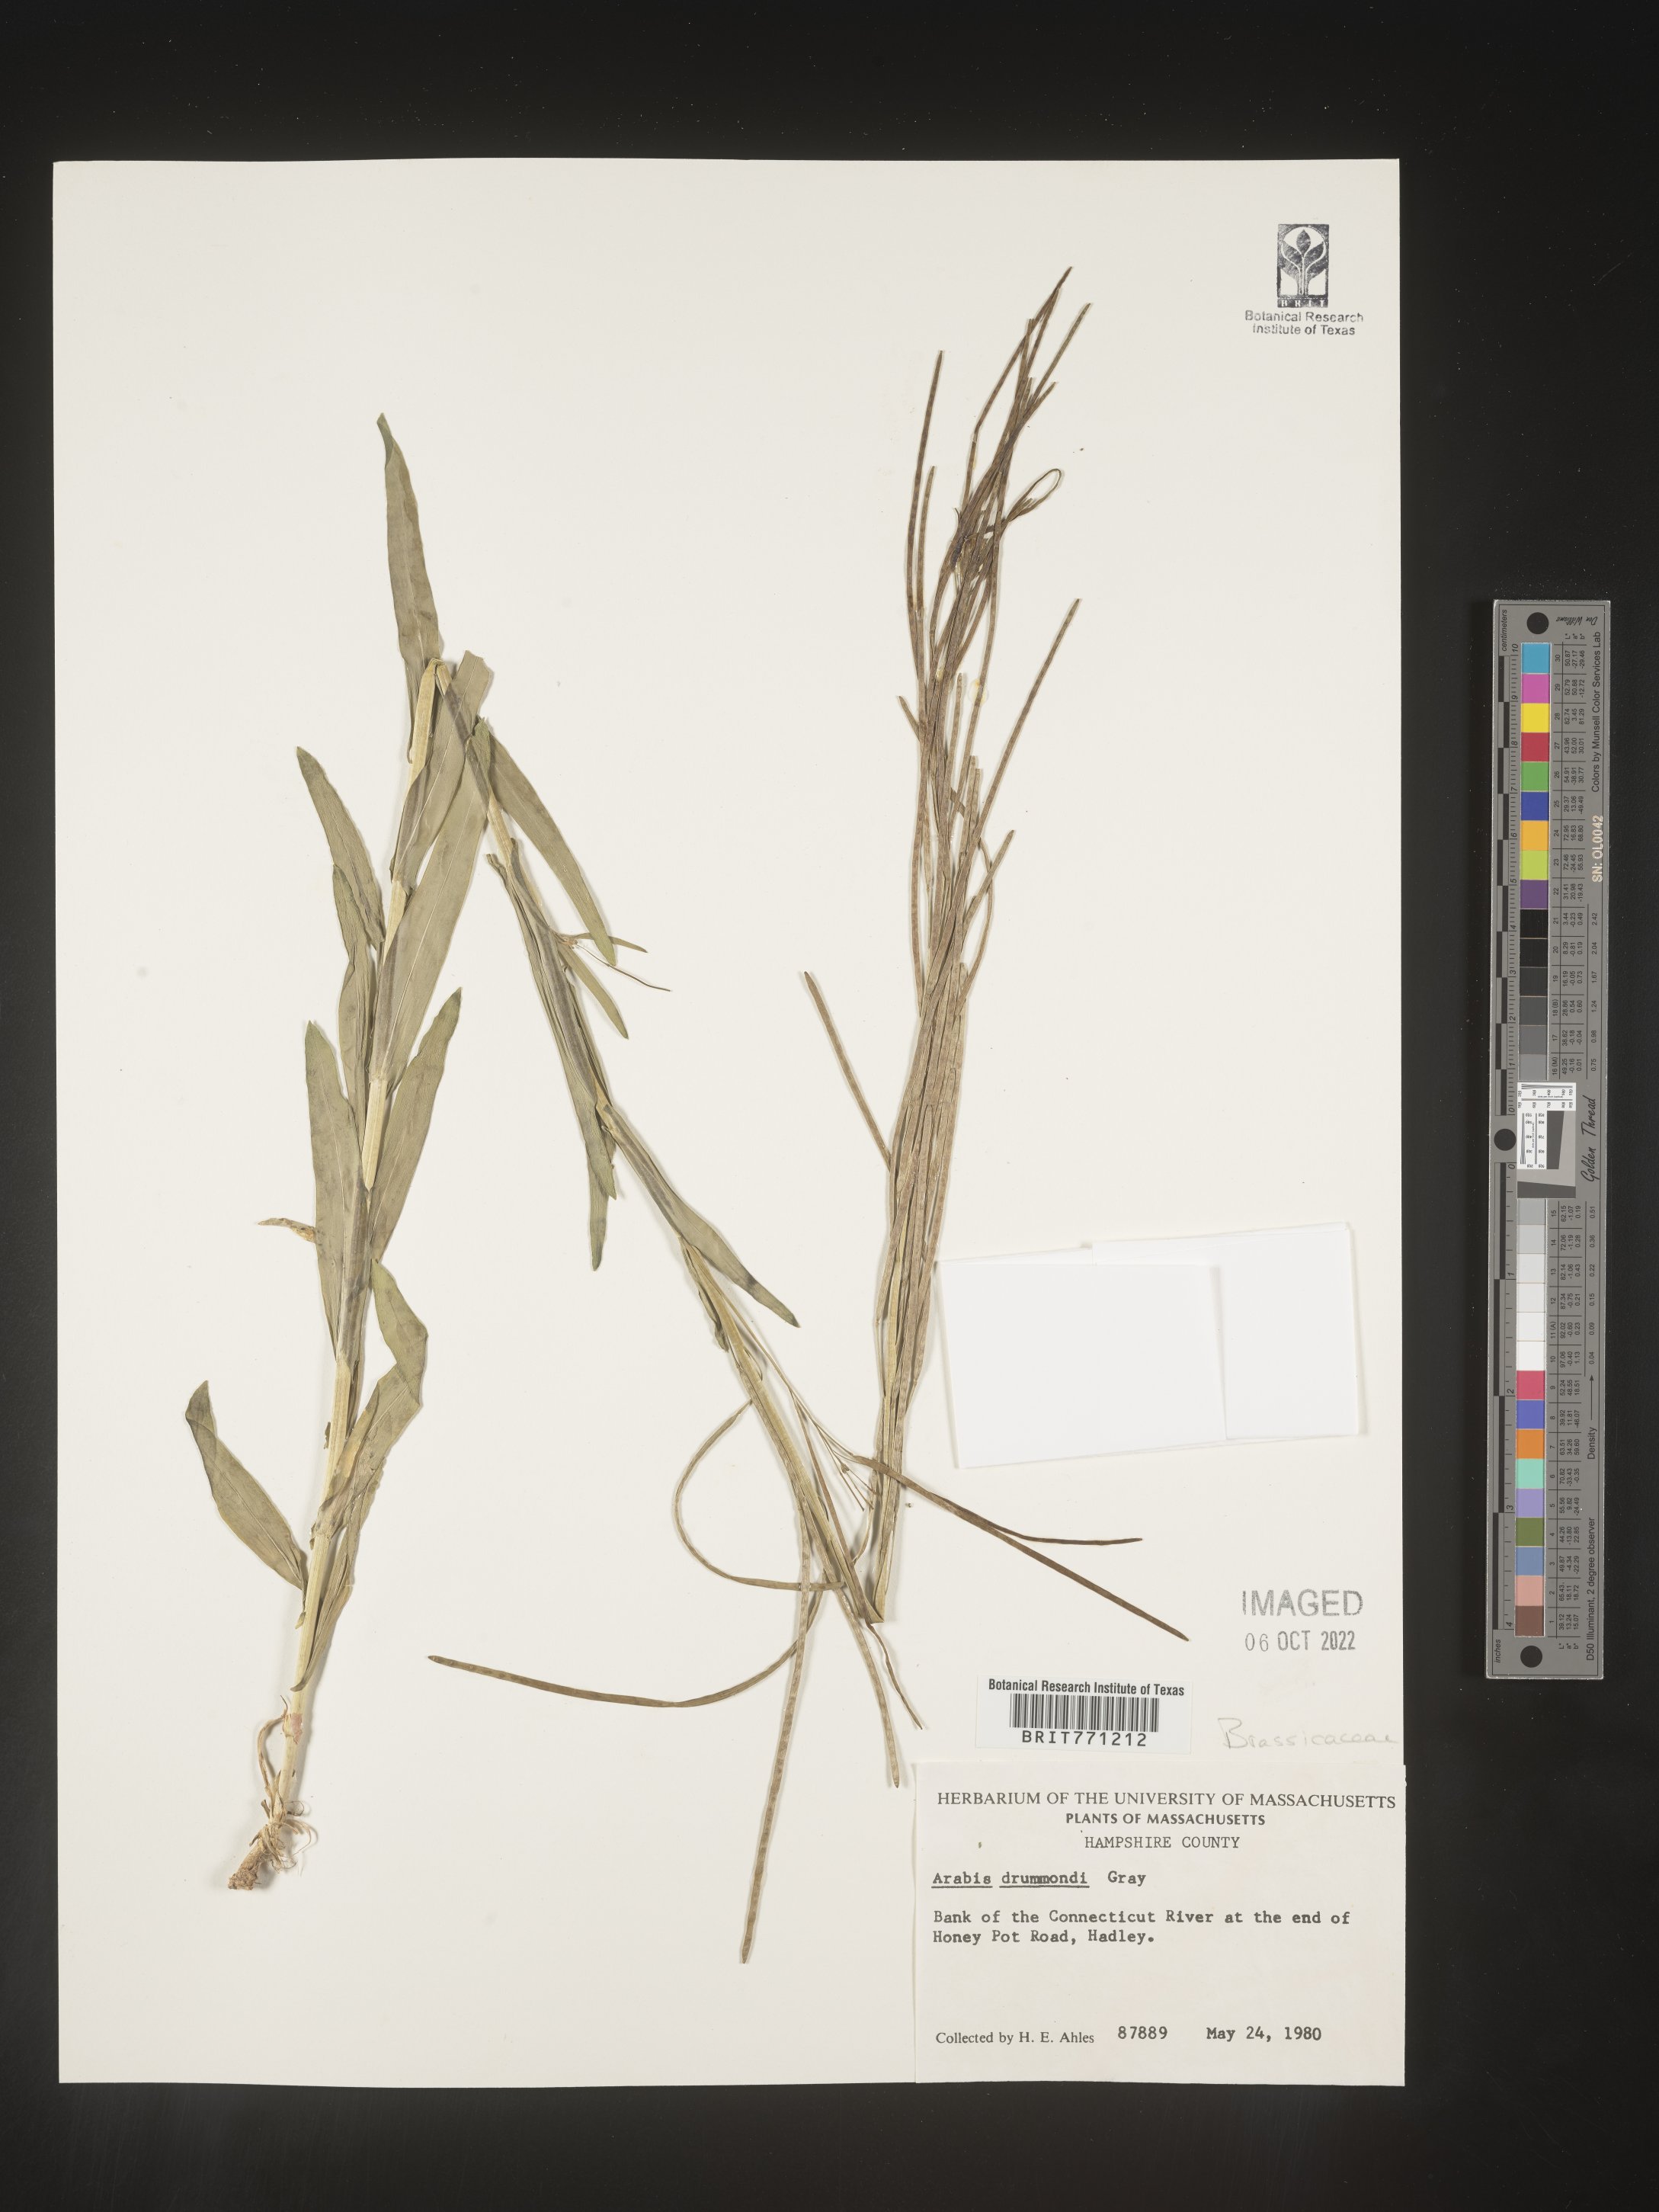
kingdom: Plantae
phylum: Tracheophyta
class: Magnoliopsida
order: Brassicales
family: Brassicaceae
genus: Boechera
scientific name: Boechera stricta
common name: Canadian rockcress
